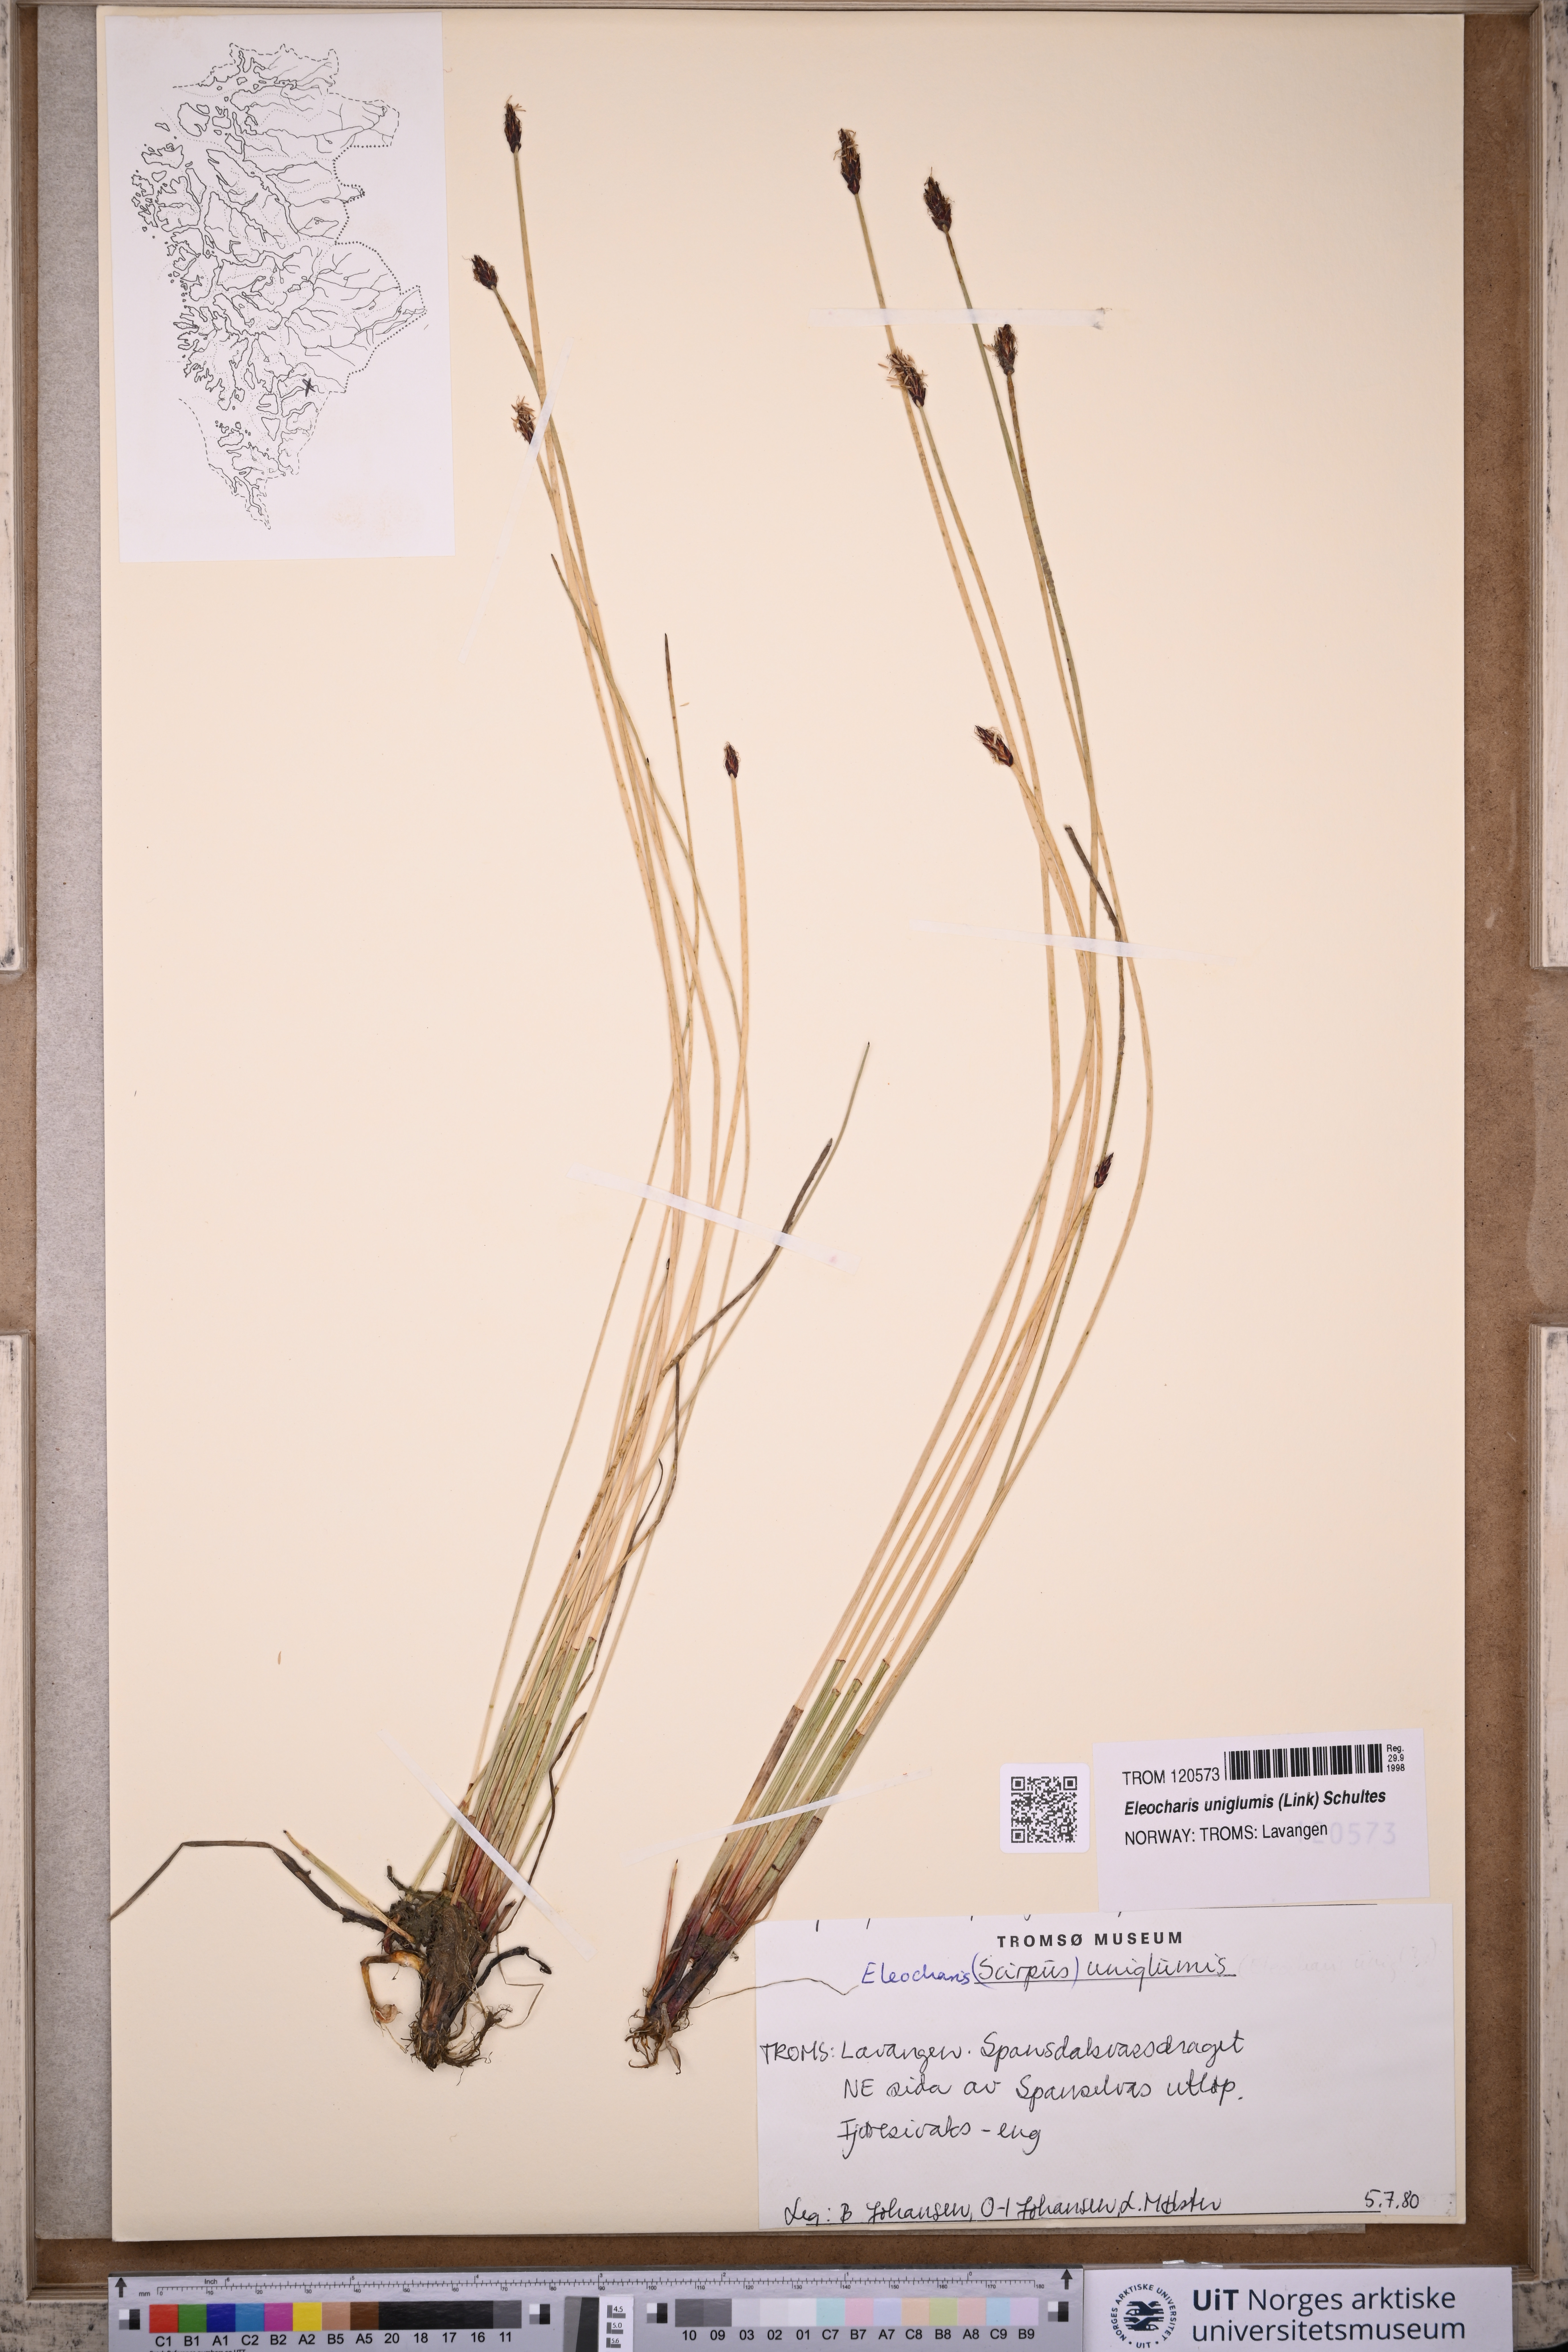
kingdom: Plantae
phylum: Tracheophyta
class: Liliopsida
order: Poales
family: Cyperaceae
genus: Eleocharis
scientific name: Eleocharis uniglumis
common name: Slender spike-rush
